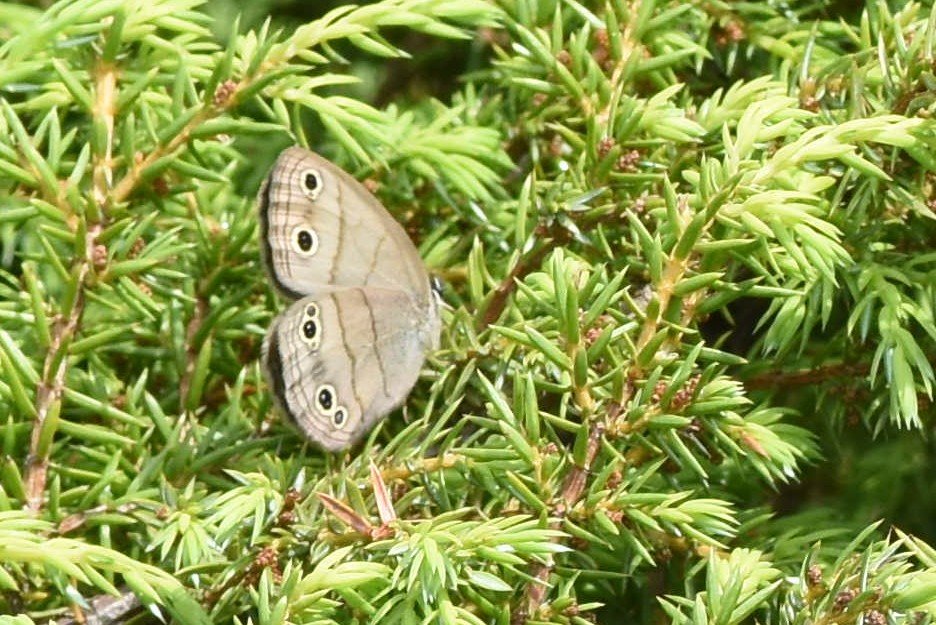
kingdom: Animalia
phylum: Arthropoda
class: Insecta
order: Lepidoptera
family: Nymphalidae
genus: Euptychia
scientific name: Euptychia cymela
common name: Little Wood Satyr
